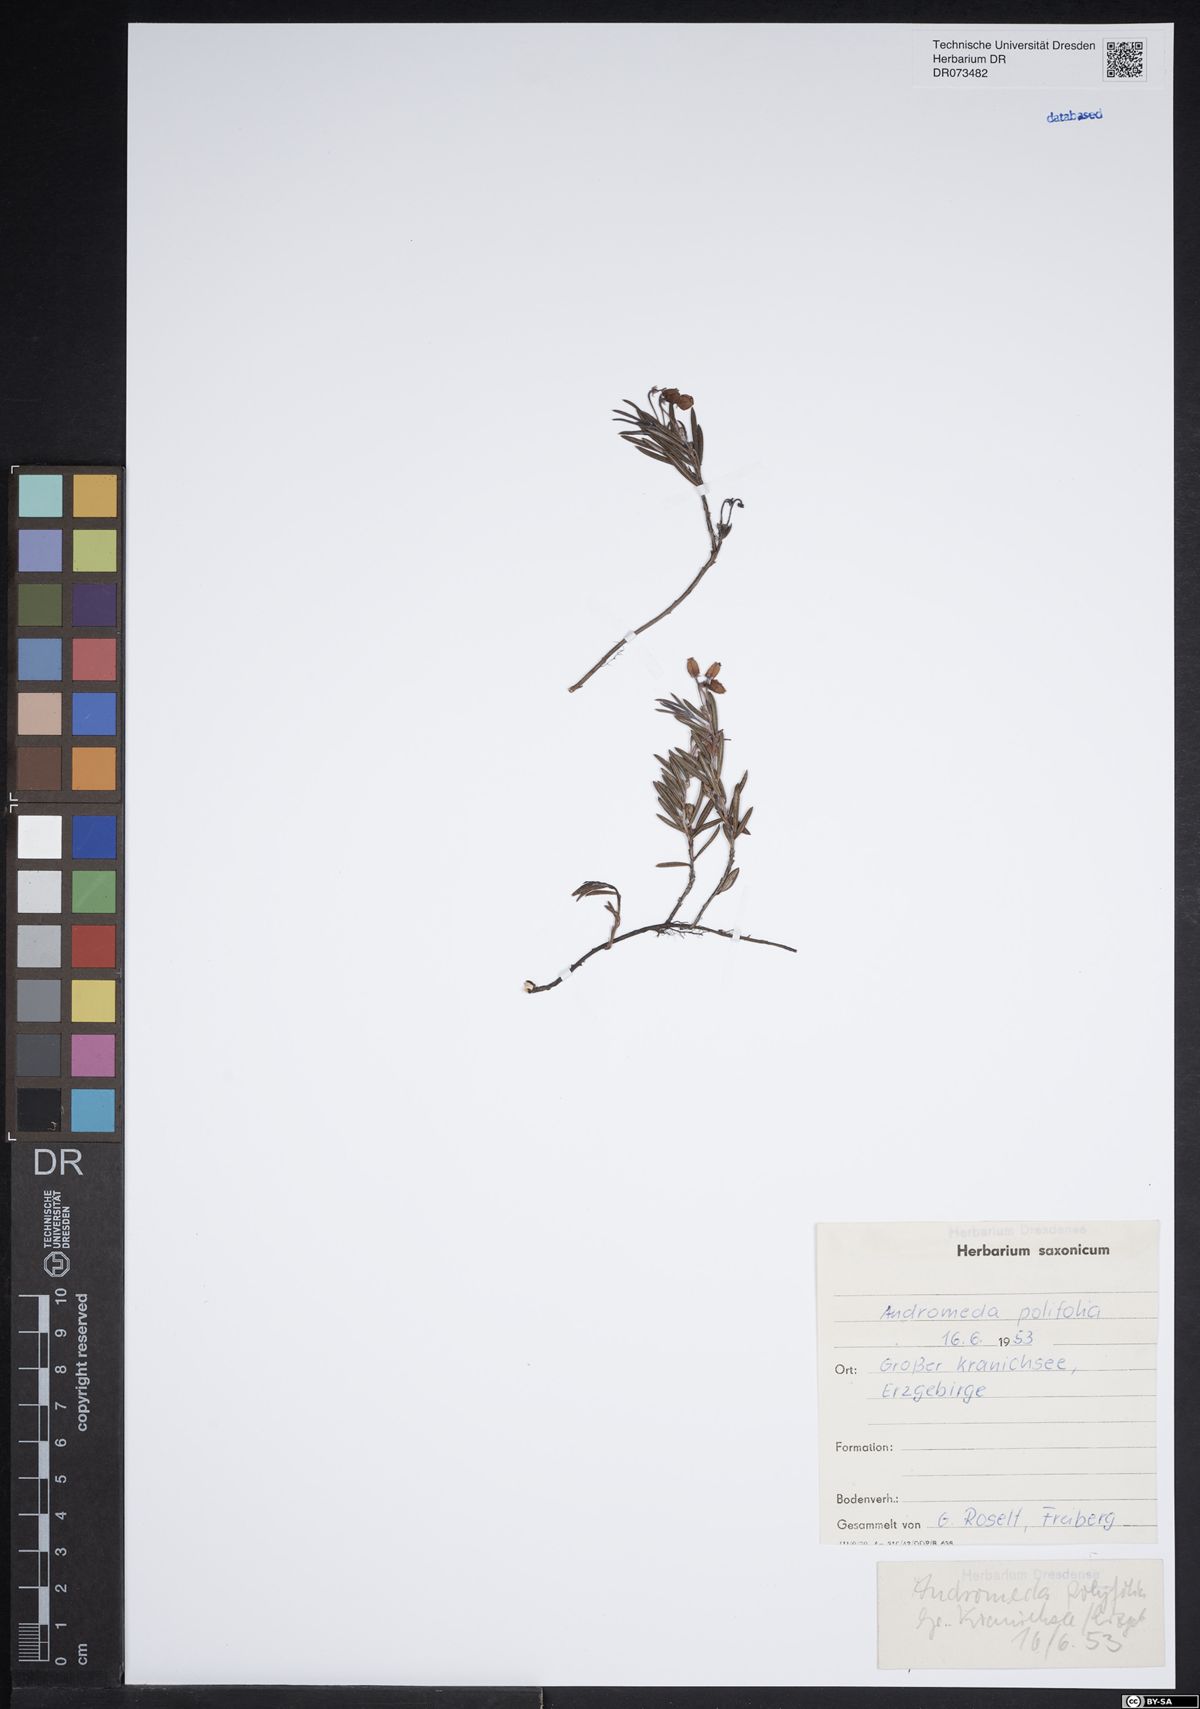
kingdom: Plantae
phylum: Tracheophyta
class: Magnoliopsida
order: Ericales
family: Ericaceae
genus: Andromeda
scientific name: Andromeda polifolia
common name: Bog-rosemary
